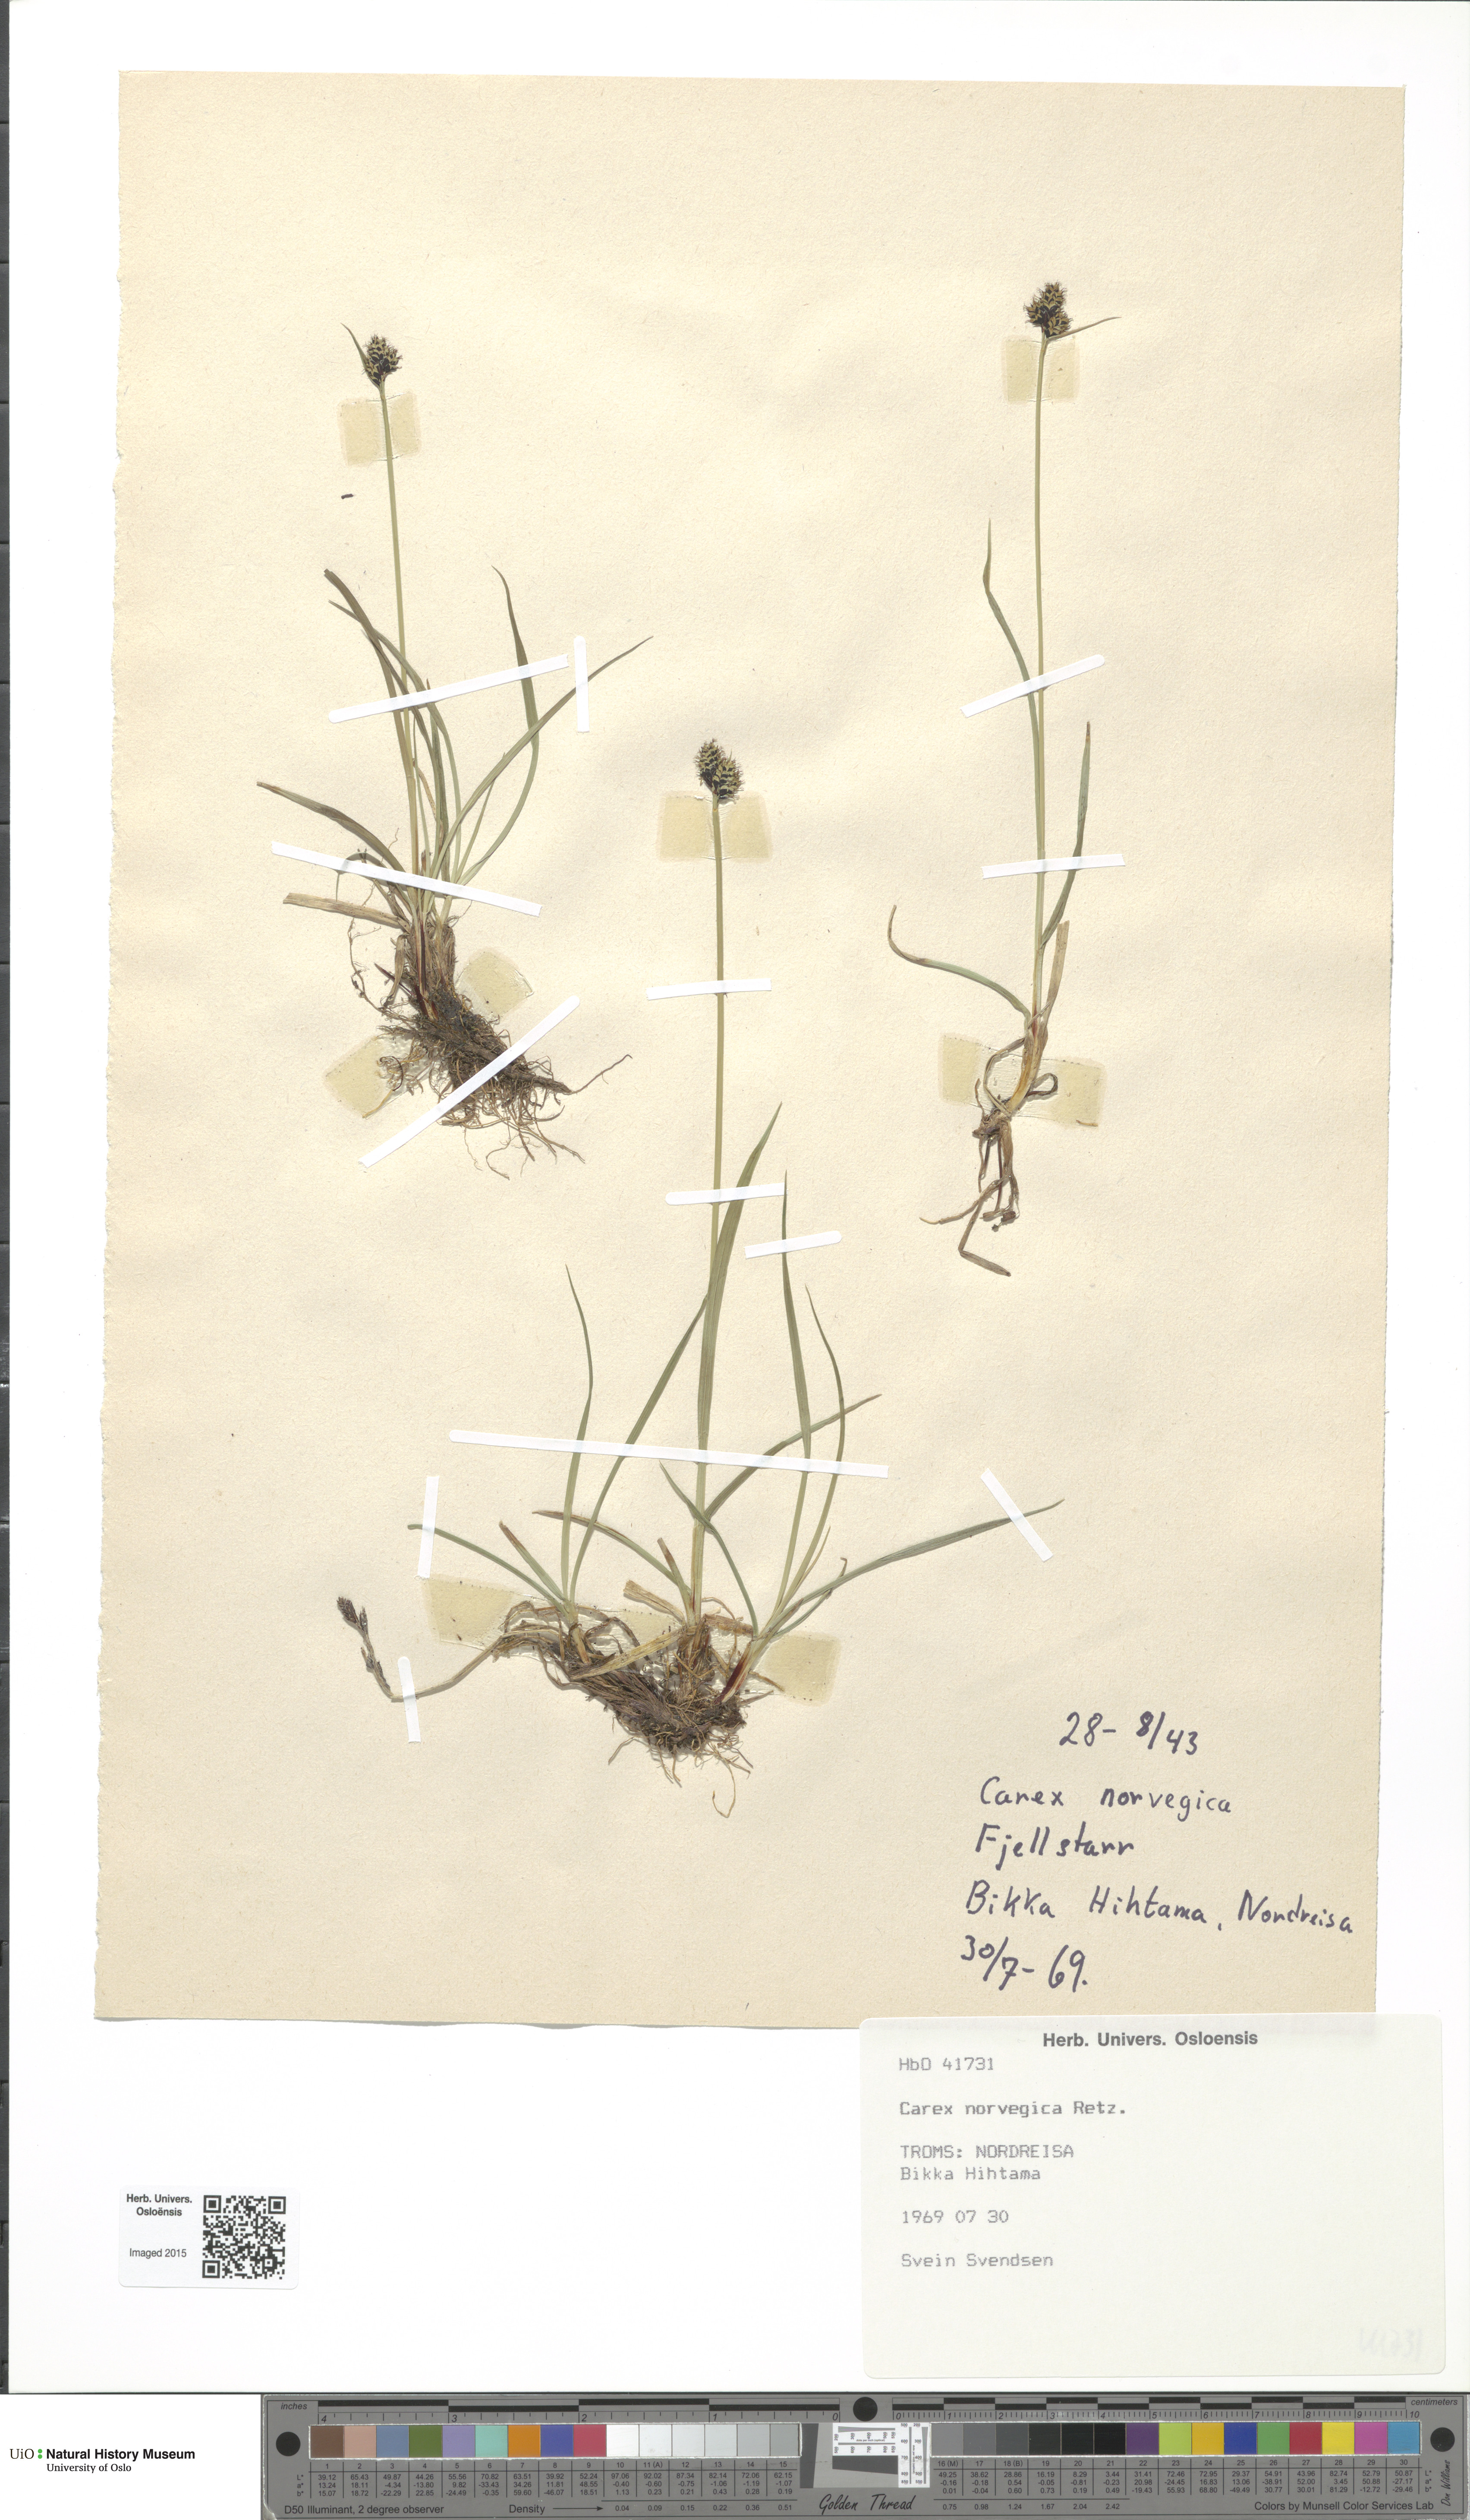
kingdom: Plantae
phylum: Tracheophyta
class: Liliopsida
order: Poales
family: Cyperaceae
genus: Carex
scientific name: Carex norvegica
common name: Close-headed alpine-sedge
